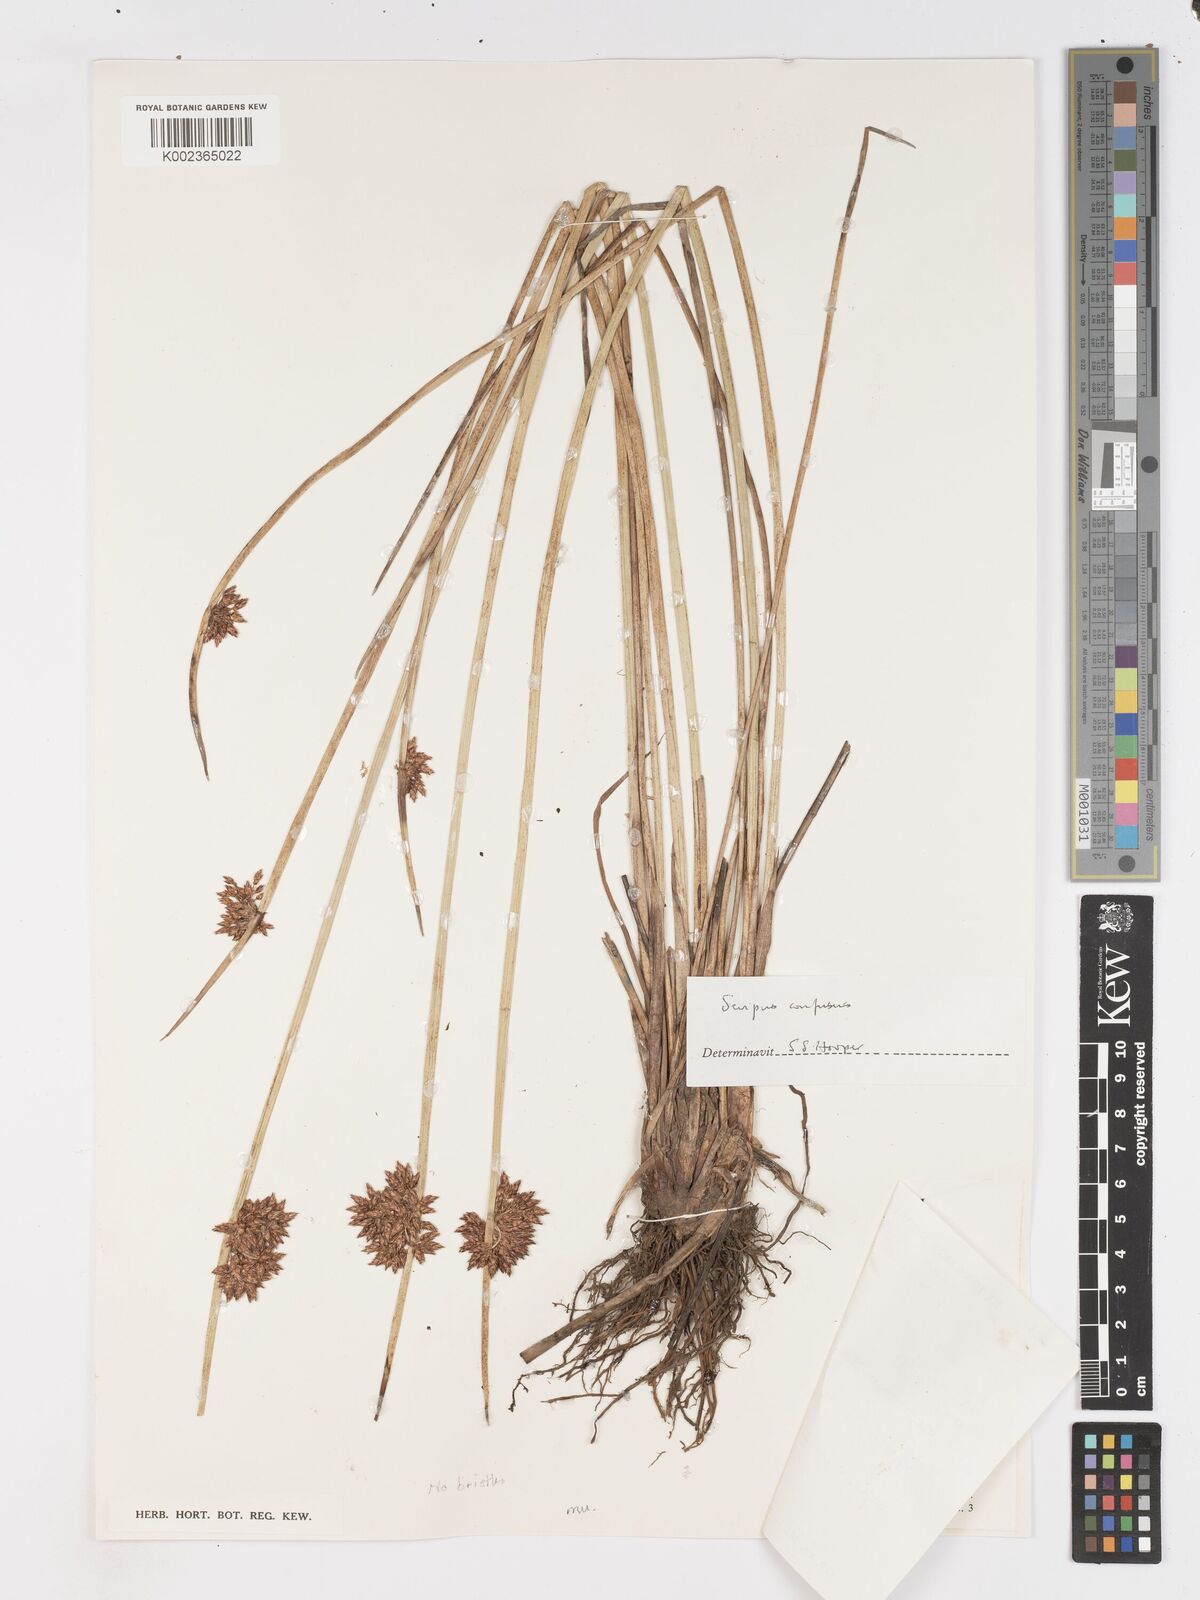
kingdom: Plantae
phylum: Tracheophyta
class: Liliopsida
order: Poales
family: Cyperaceae
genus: Schoenoplectiella
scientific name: Schoenoplectiella confusa
